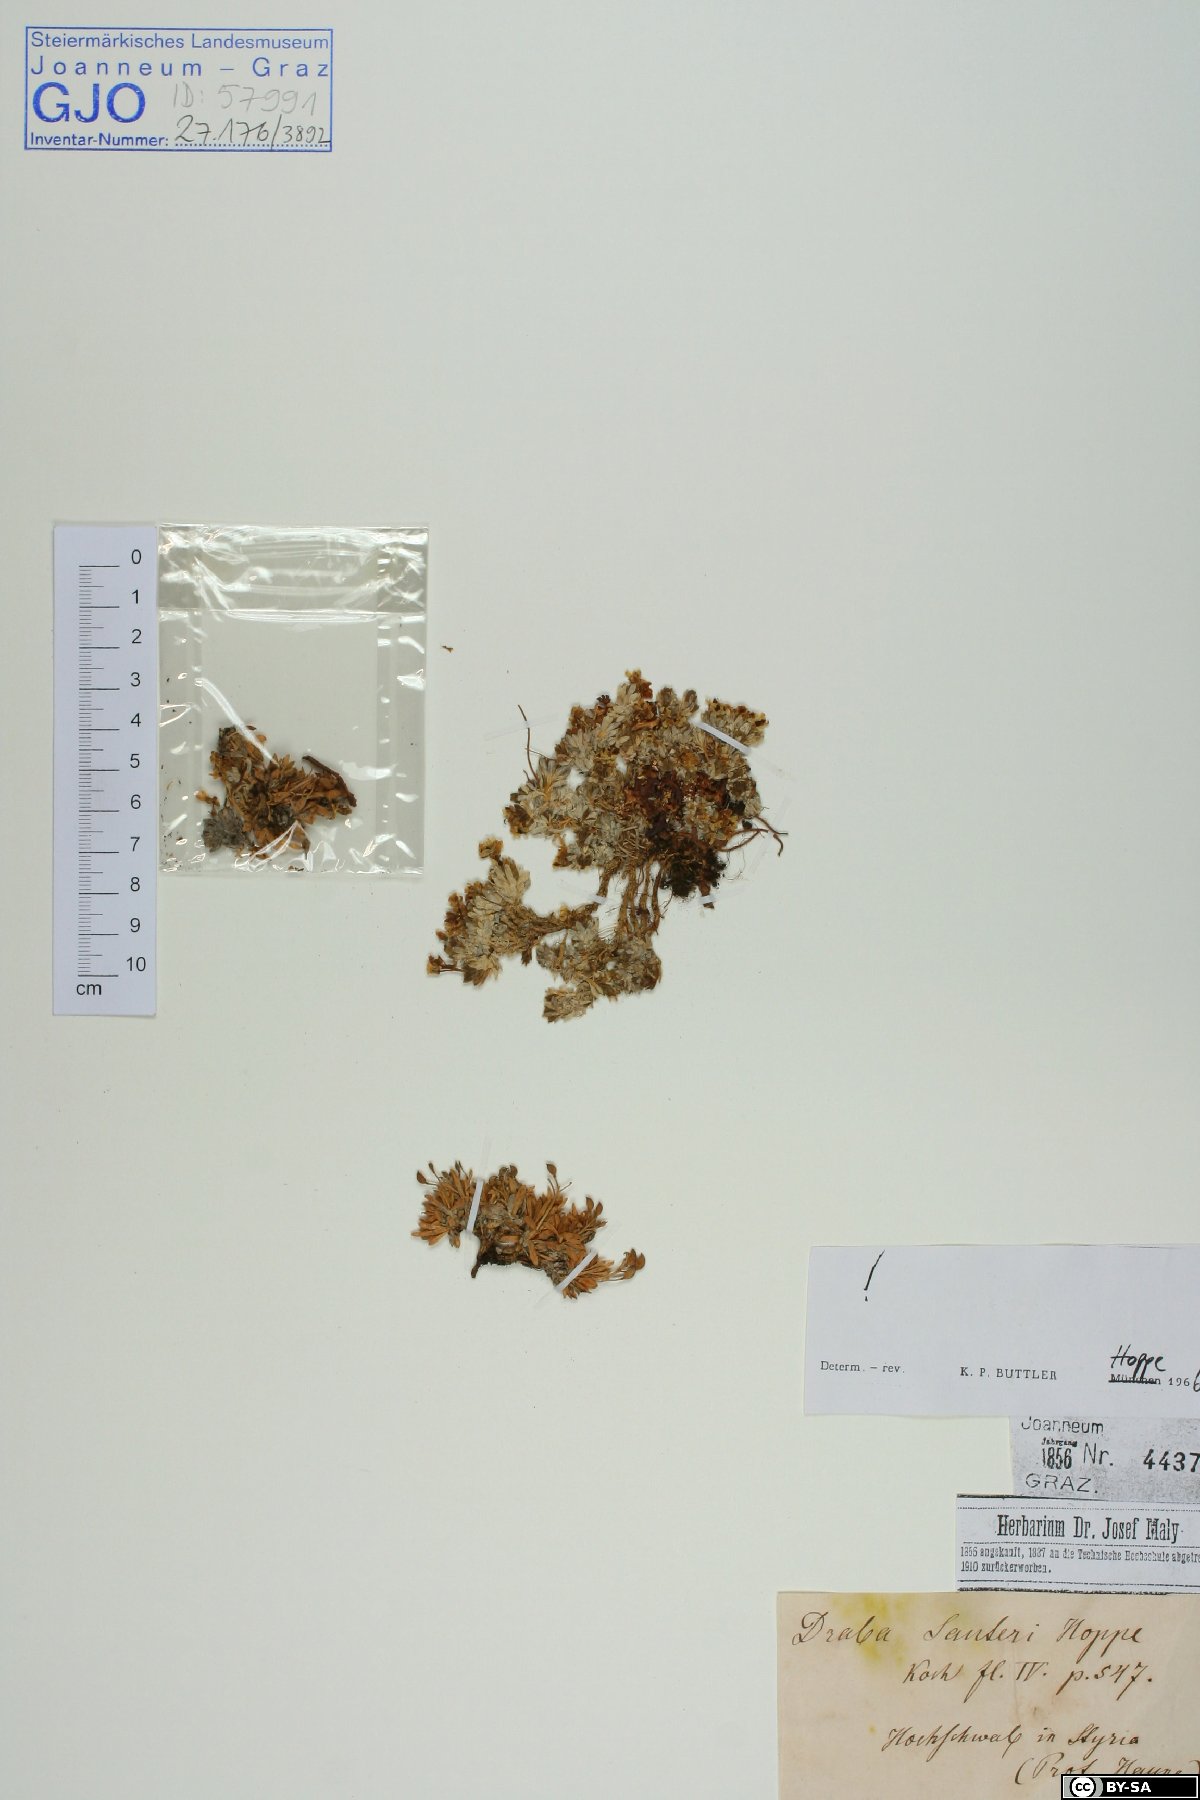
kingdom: Plantae
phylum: Tracheophyta
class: Magnoliopsida
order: Brassicales
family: Brassicaceae
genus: Draba
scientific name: Draba sauteri
